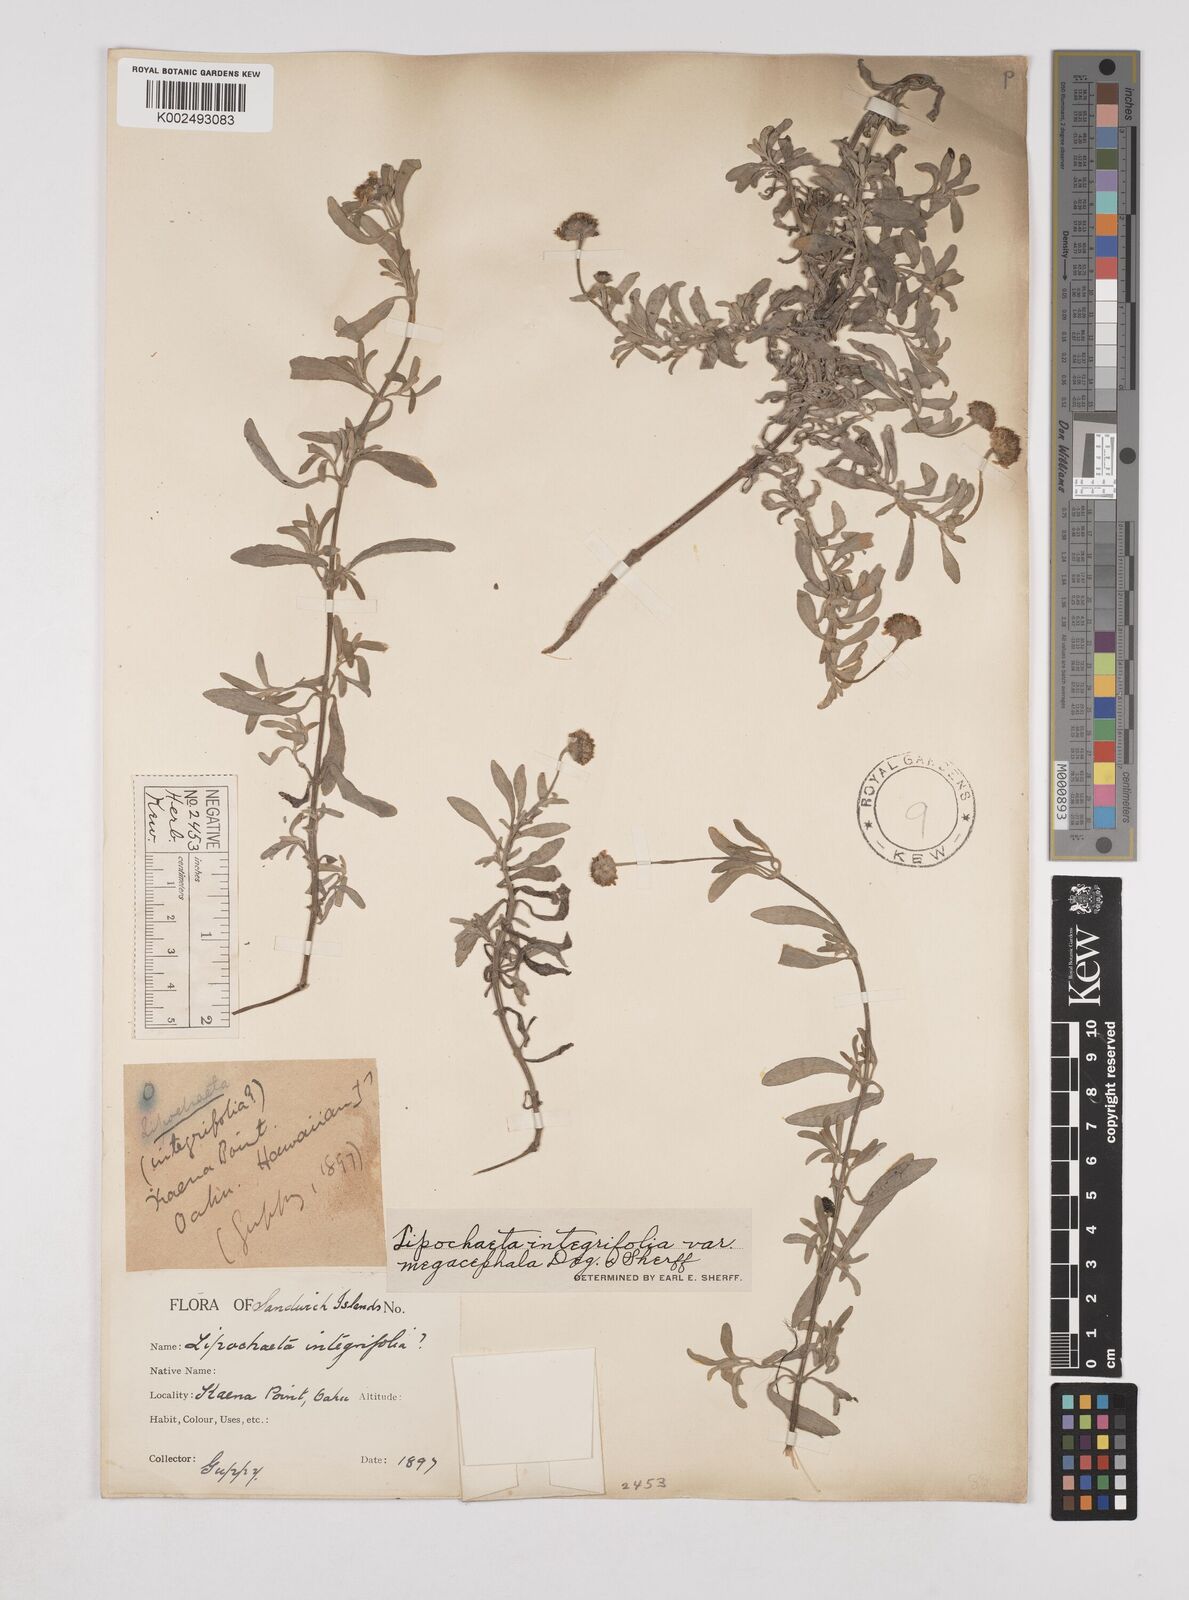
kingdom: Plantae
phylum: Tracheophyta
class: Magnoliopsida
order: Asterales
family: Asteraceae
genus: Lipochaeta
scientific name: Lipochaeta integrifolia
